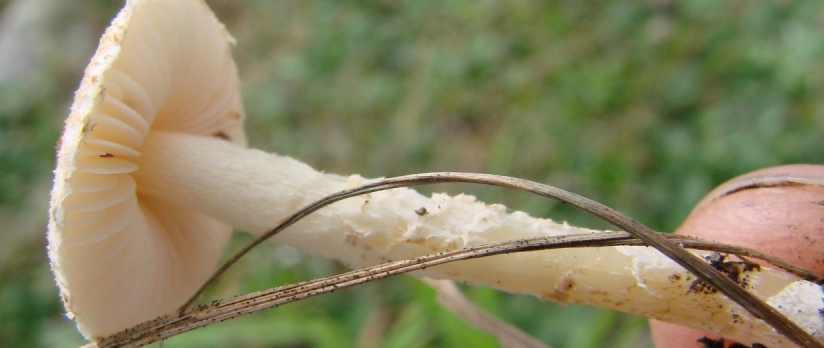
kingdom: Fungi
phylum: Basidiomycota
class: Agaricomycetes
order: Agaricales
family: Agaricaceae
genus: Lepiota
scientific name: Lepiota oreadiformis
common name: blegbrun parasolhat
